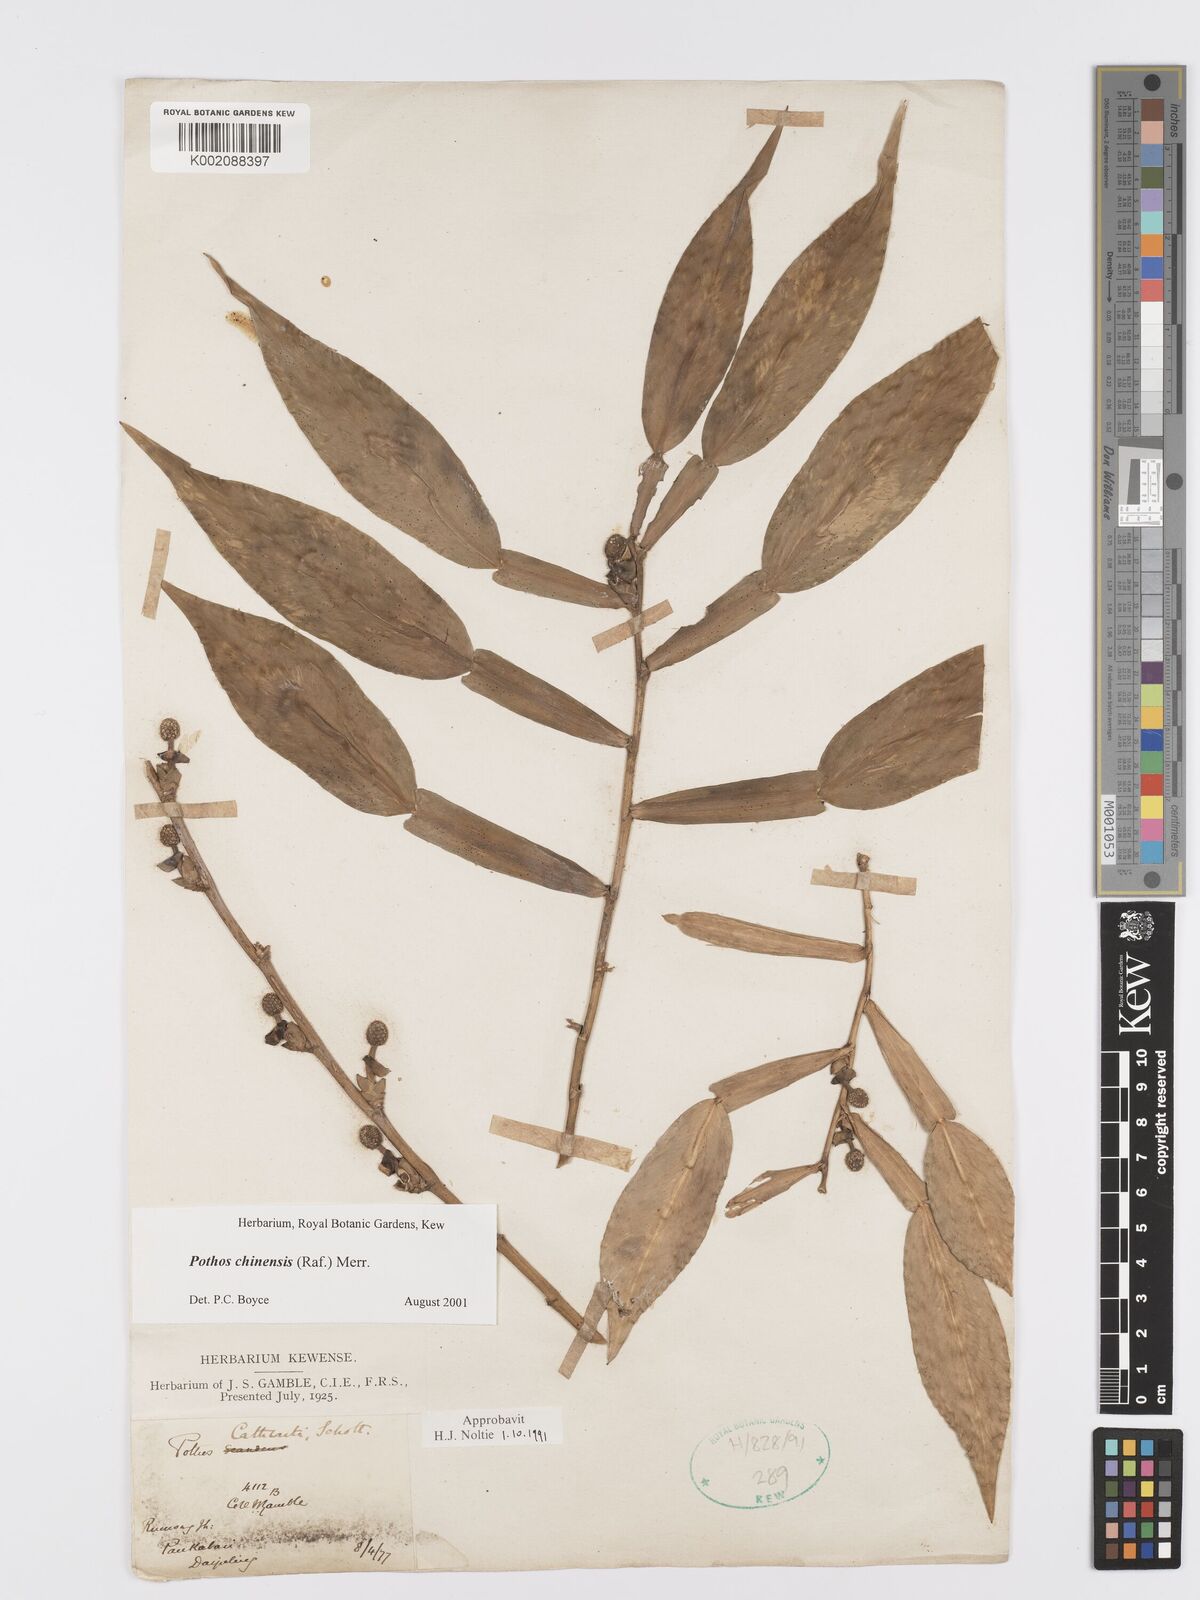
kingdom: Plantae
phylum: Tracheophyta
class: Liliopsida
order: Alismatales
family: Araceae
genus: Pothos
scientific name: Pothos chinensis
